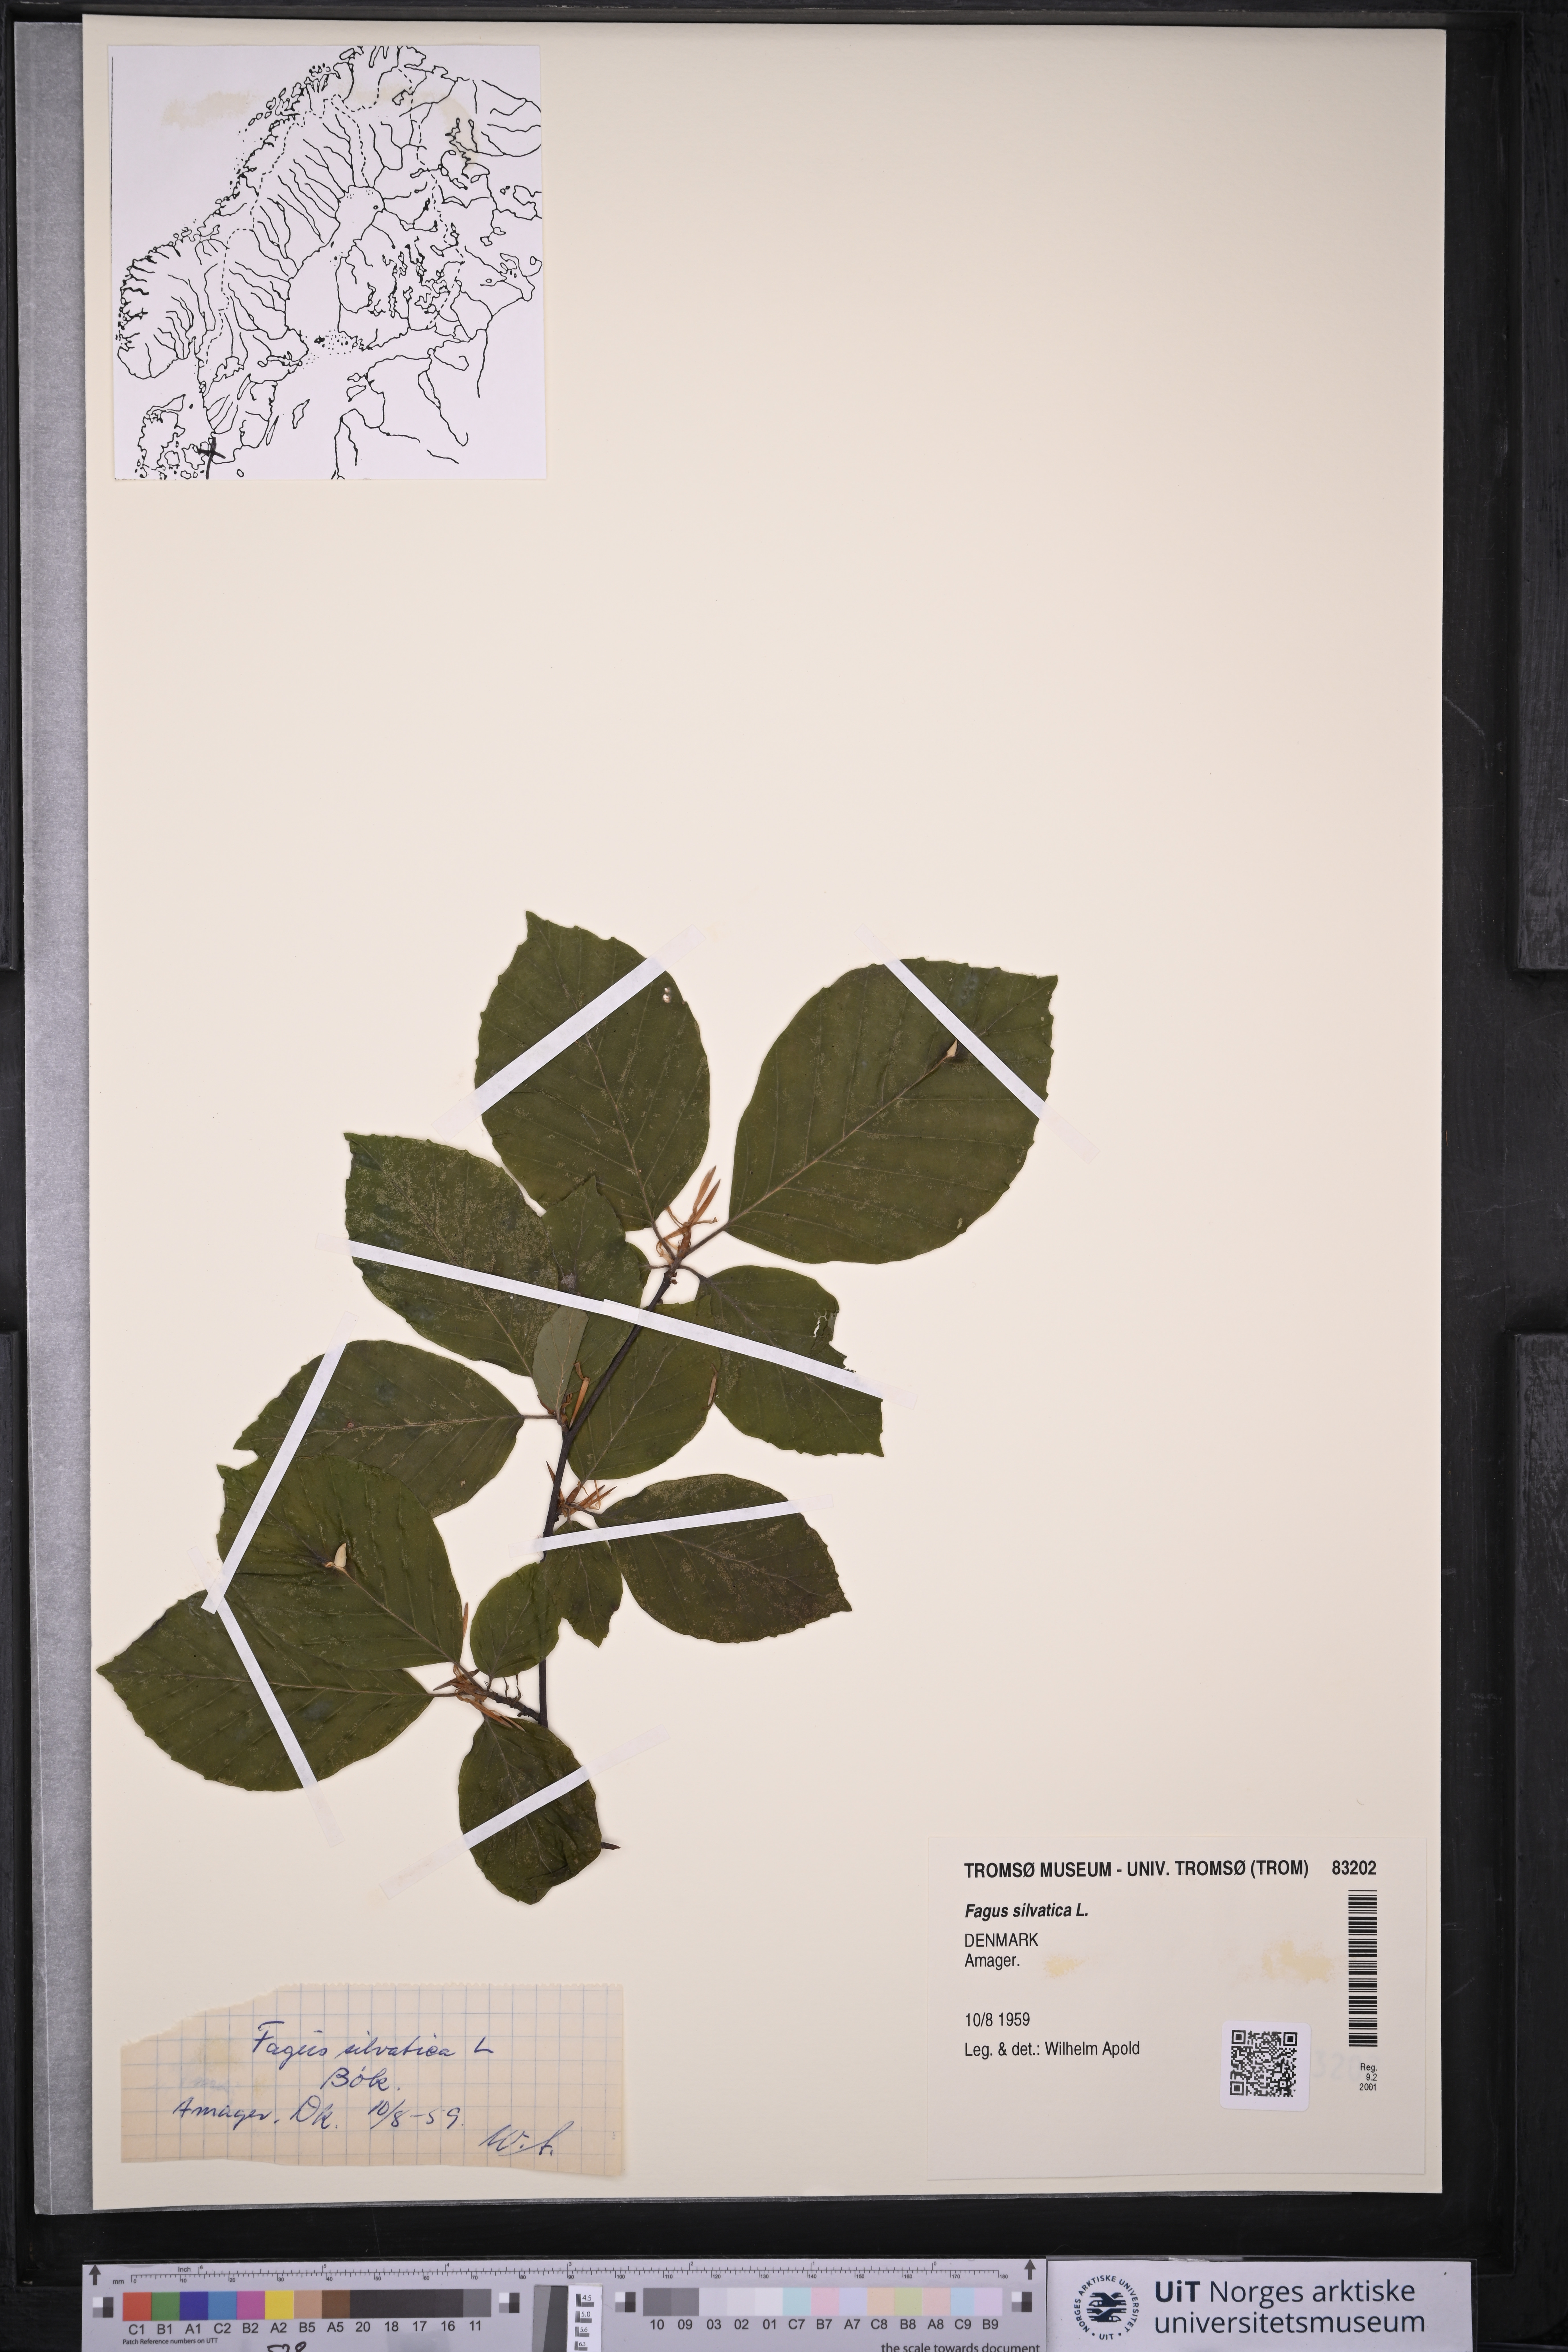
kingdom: Plantae
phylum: Tracheophyta
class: Magnoliopsida
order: Fagales
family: Fagaceae
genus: Fagus
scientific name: Fagus sylvatica
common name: Beech
